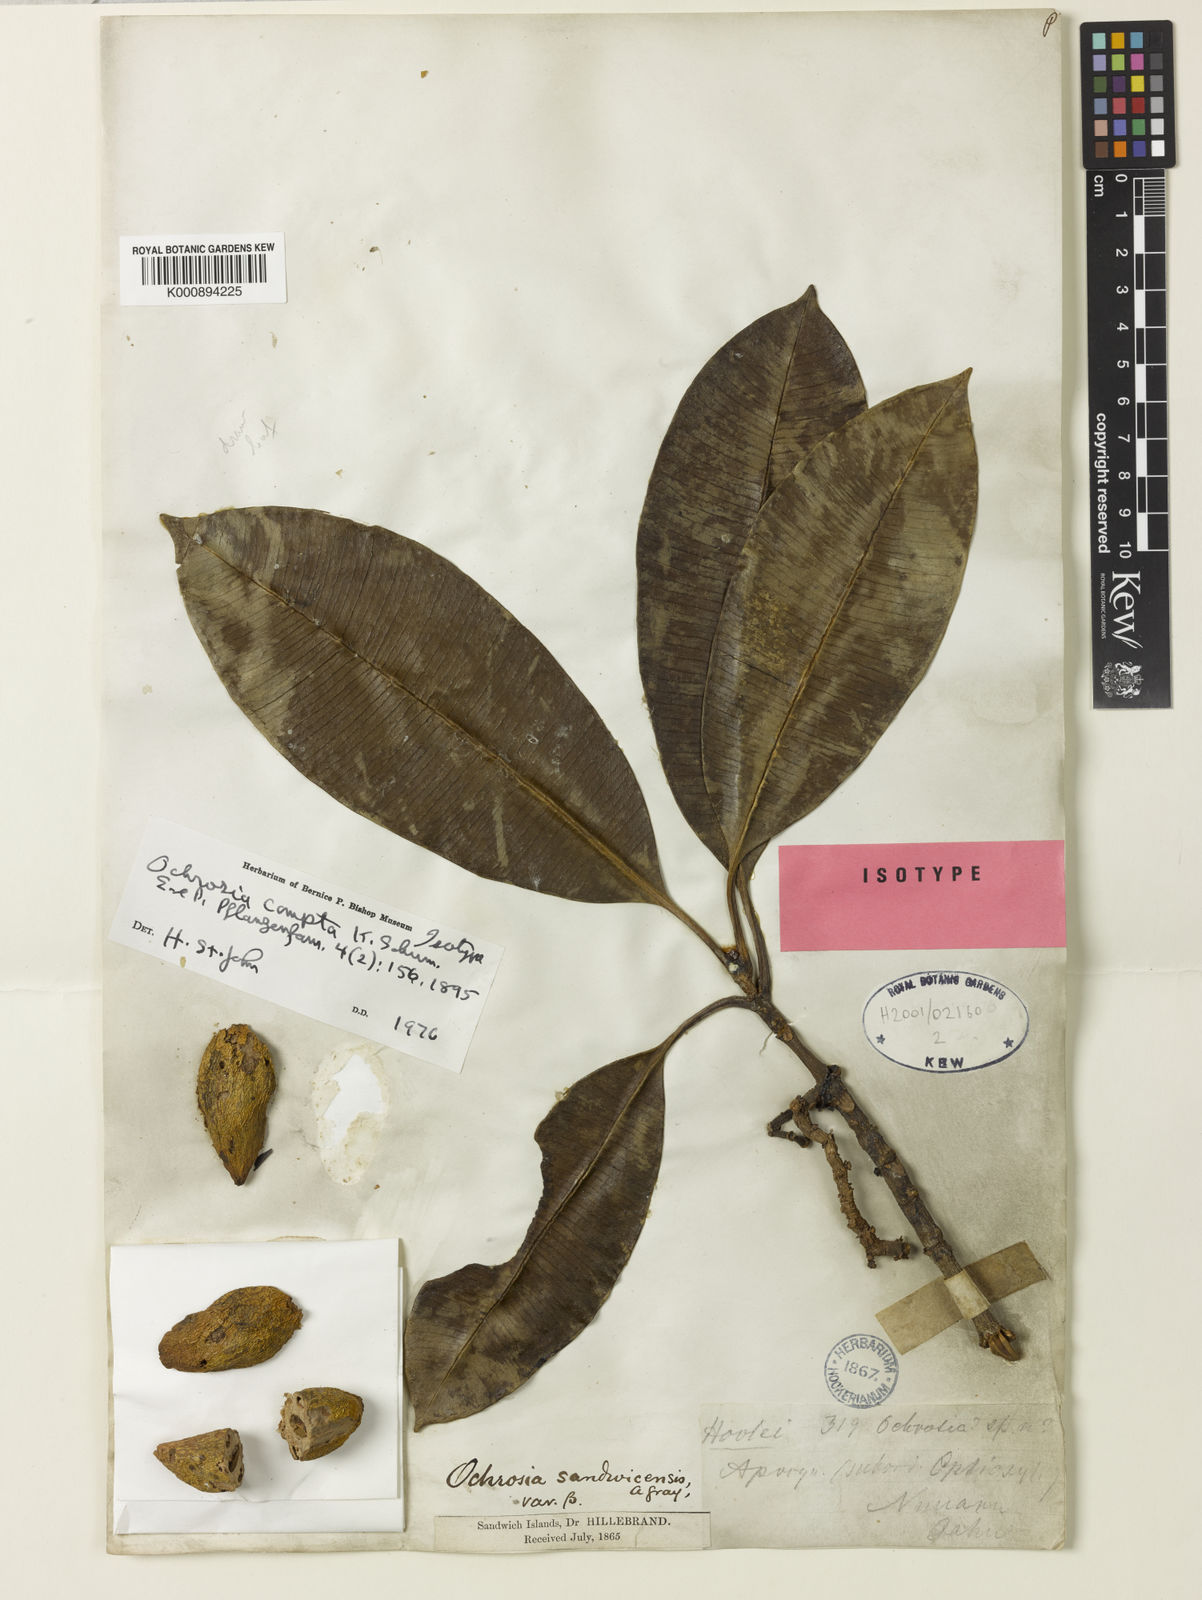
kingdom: Plantae
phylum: Tracheophyta
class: Magnoliopsida
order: Gentianales
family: Apocynaceae
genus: Ochrosia
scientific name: Ochrosia compta
